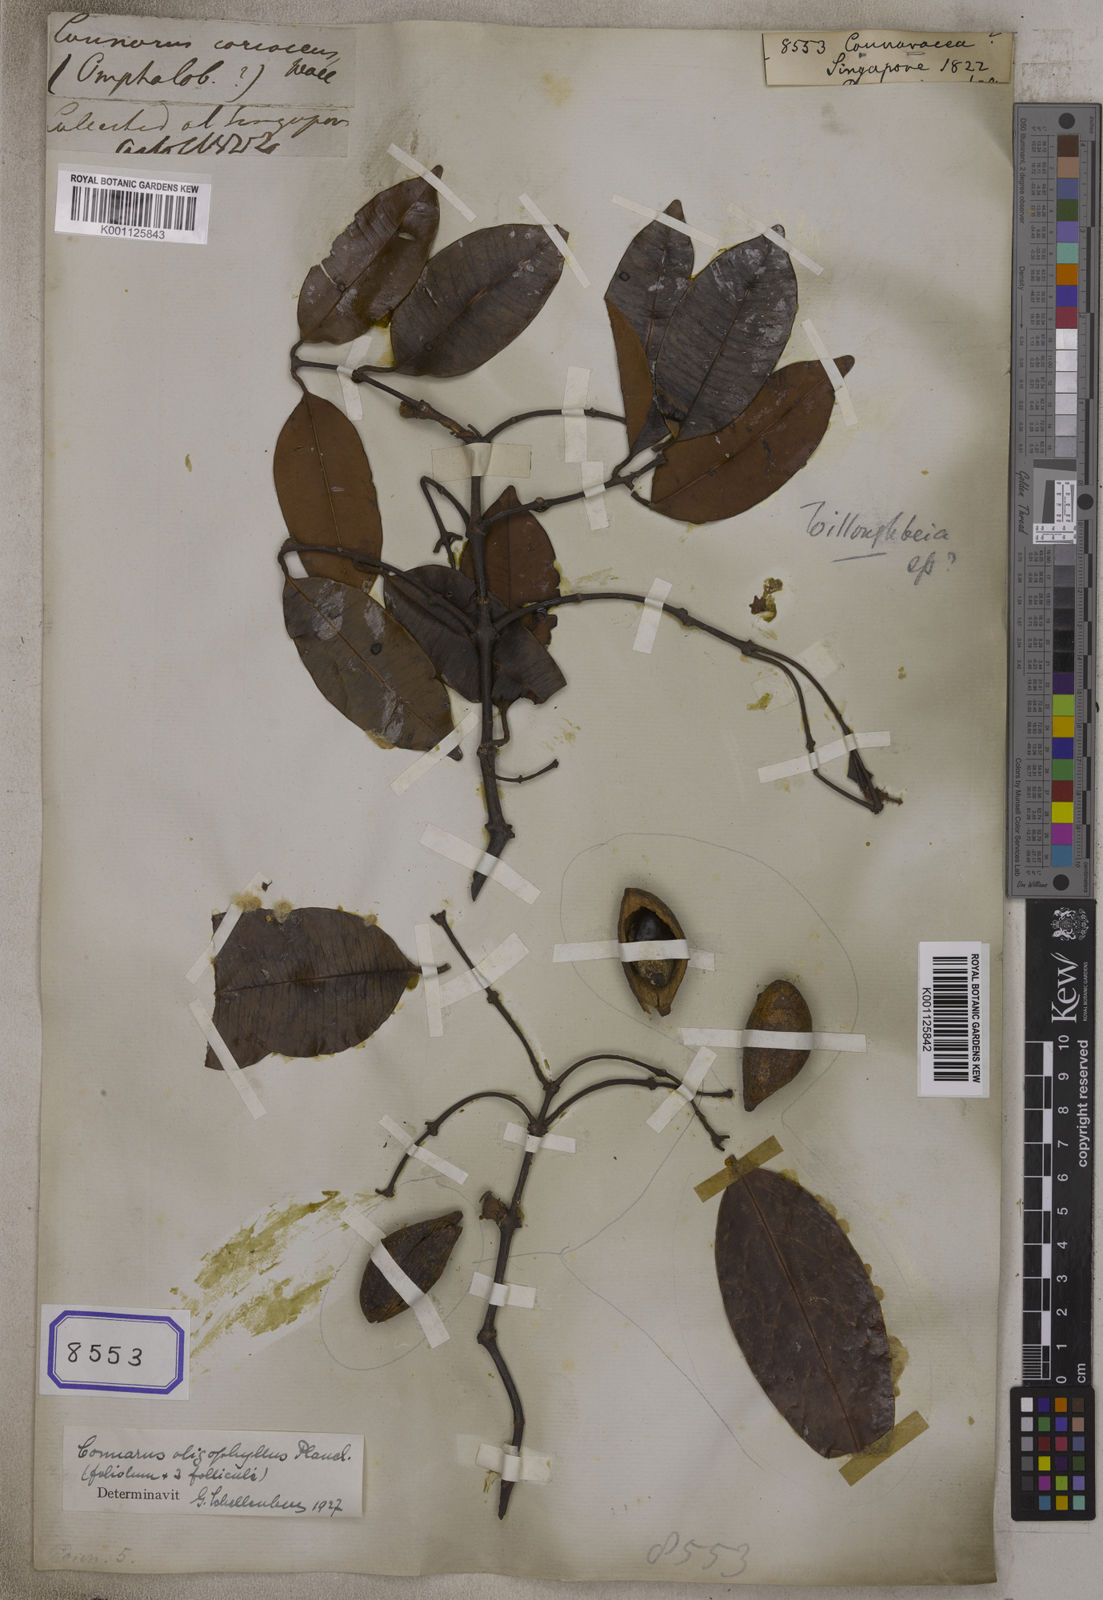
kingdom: Plantae
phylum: Tracheophyta
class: Magnoliopsida
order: Oxalidales
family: Connaraceae
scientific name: Connaraceae
